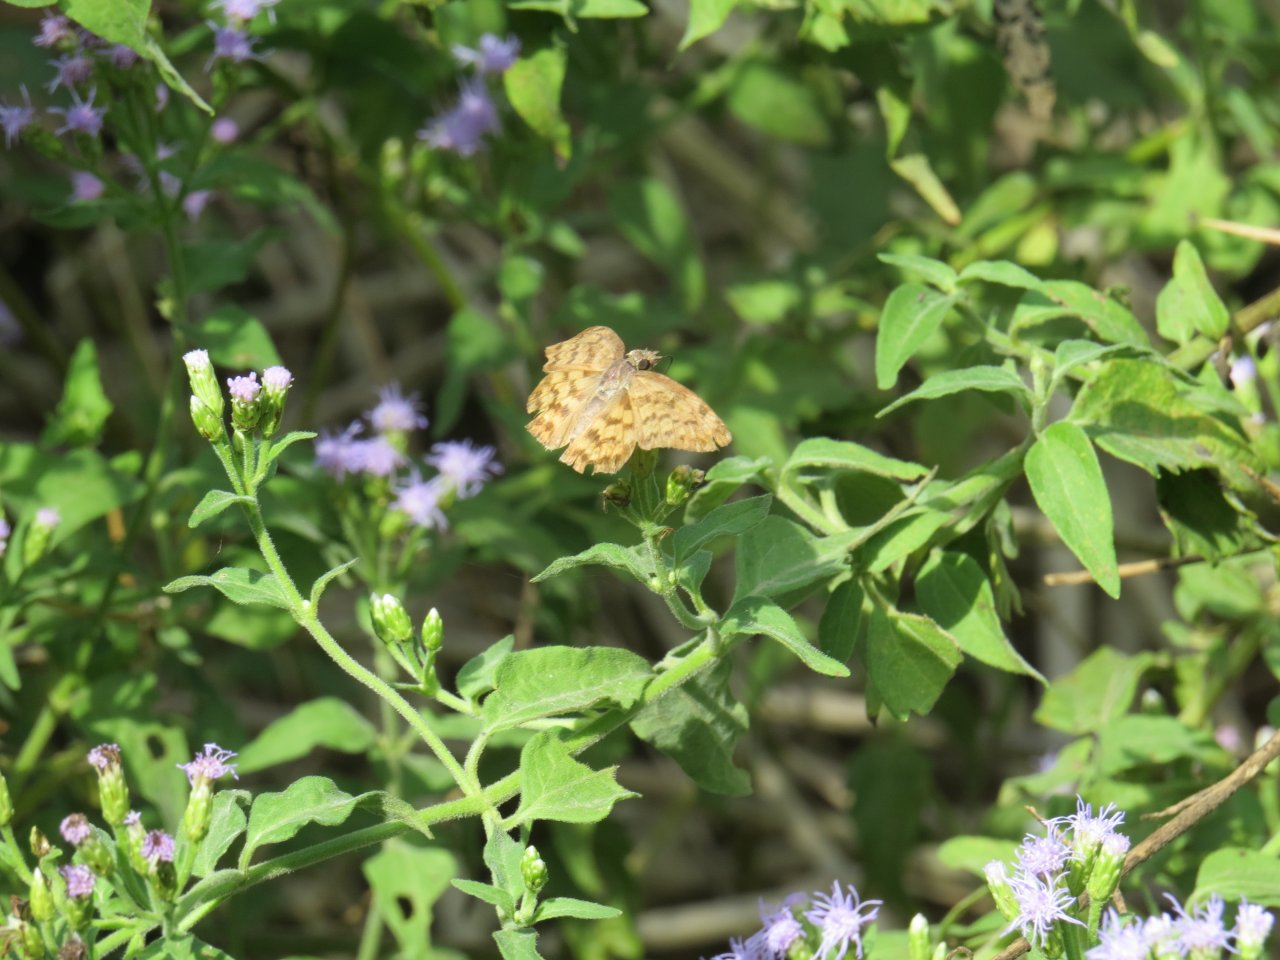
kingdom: Animalia
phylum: Arthropoda
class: Insecta
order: Lepidoptera
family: Hesperiidae
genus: Timochares
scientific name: Timochares ruptifasciata
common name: Brown-banded Skipper
